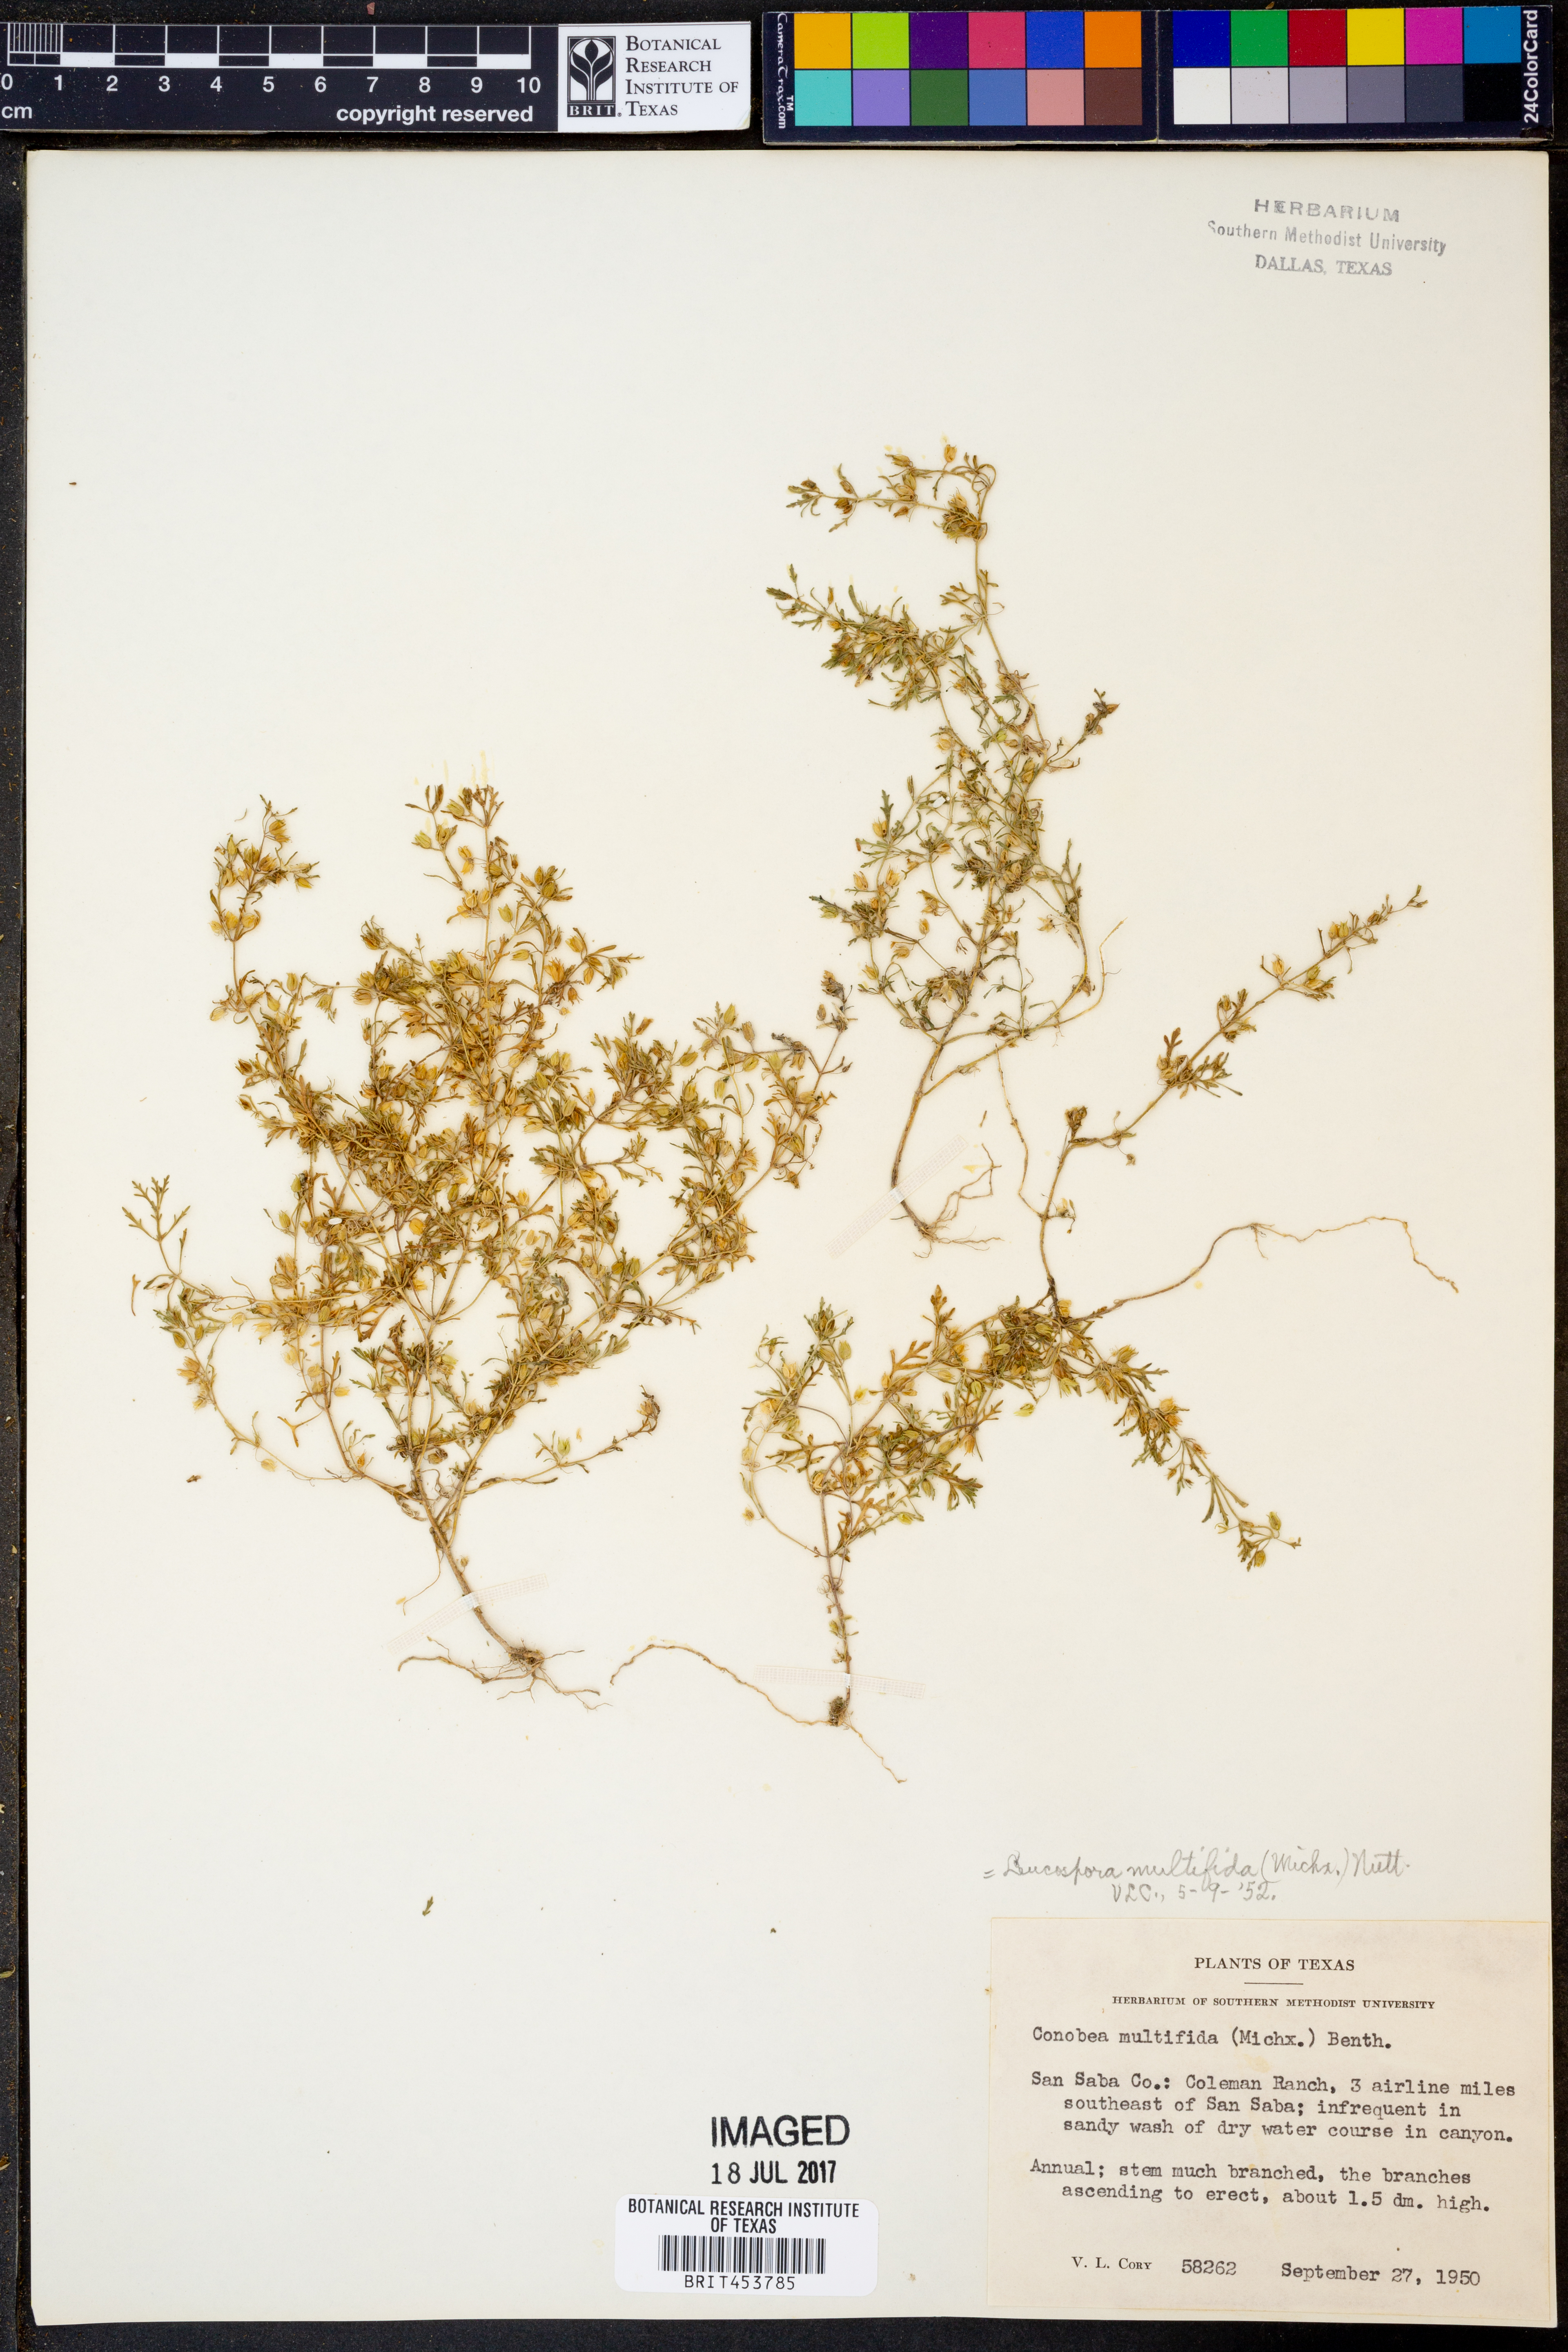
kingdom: Plantae
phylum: Tracheophyta
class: Magnoliopsida
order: Lamiales
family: Plantaginaceae
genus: Leucospora
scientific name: Leucospora multifida
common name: Narrow-leaf paleseed
